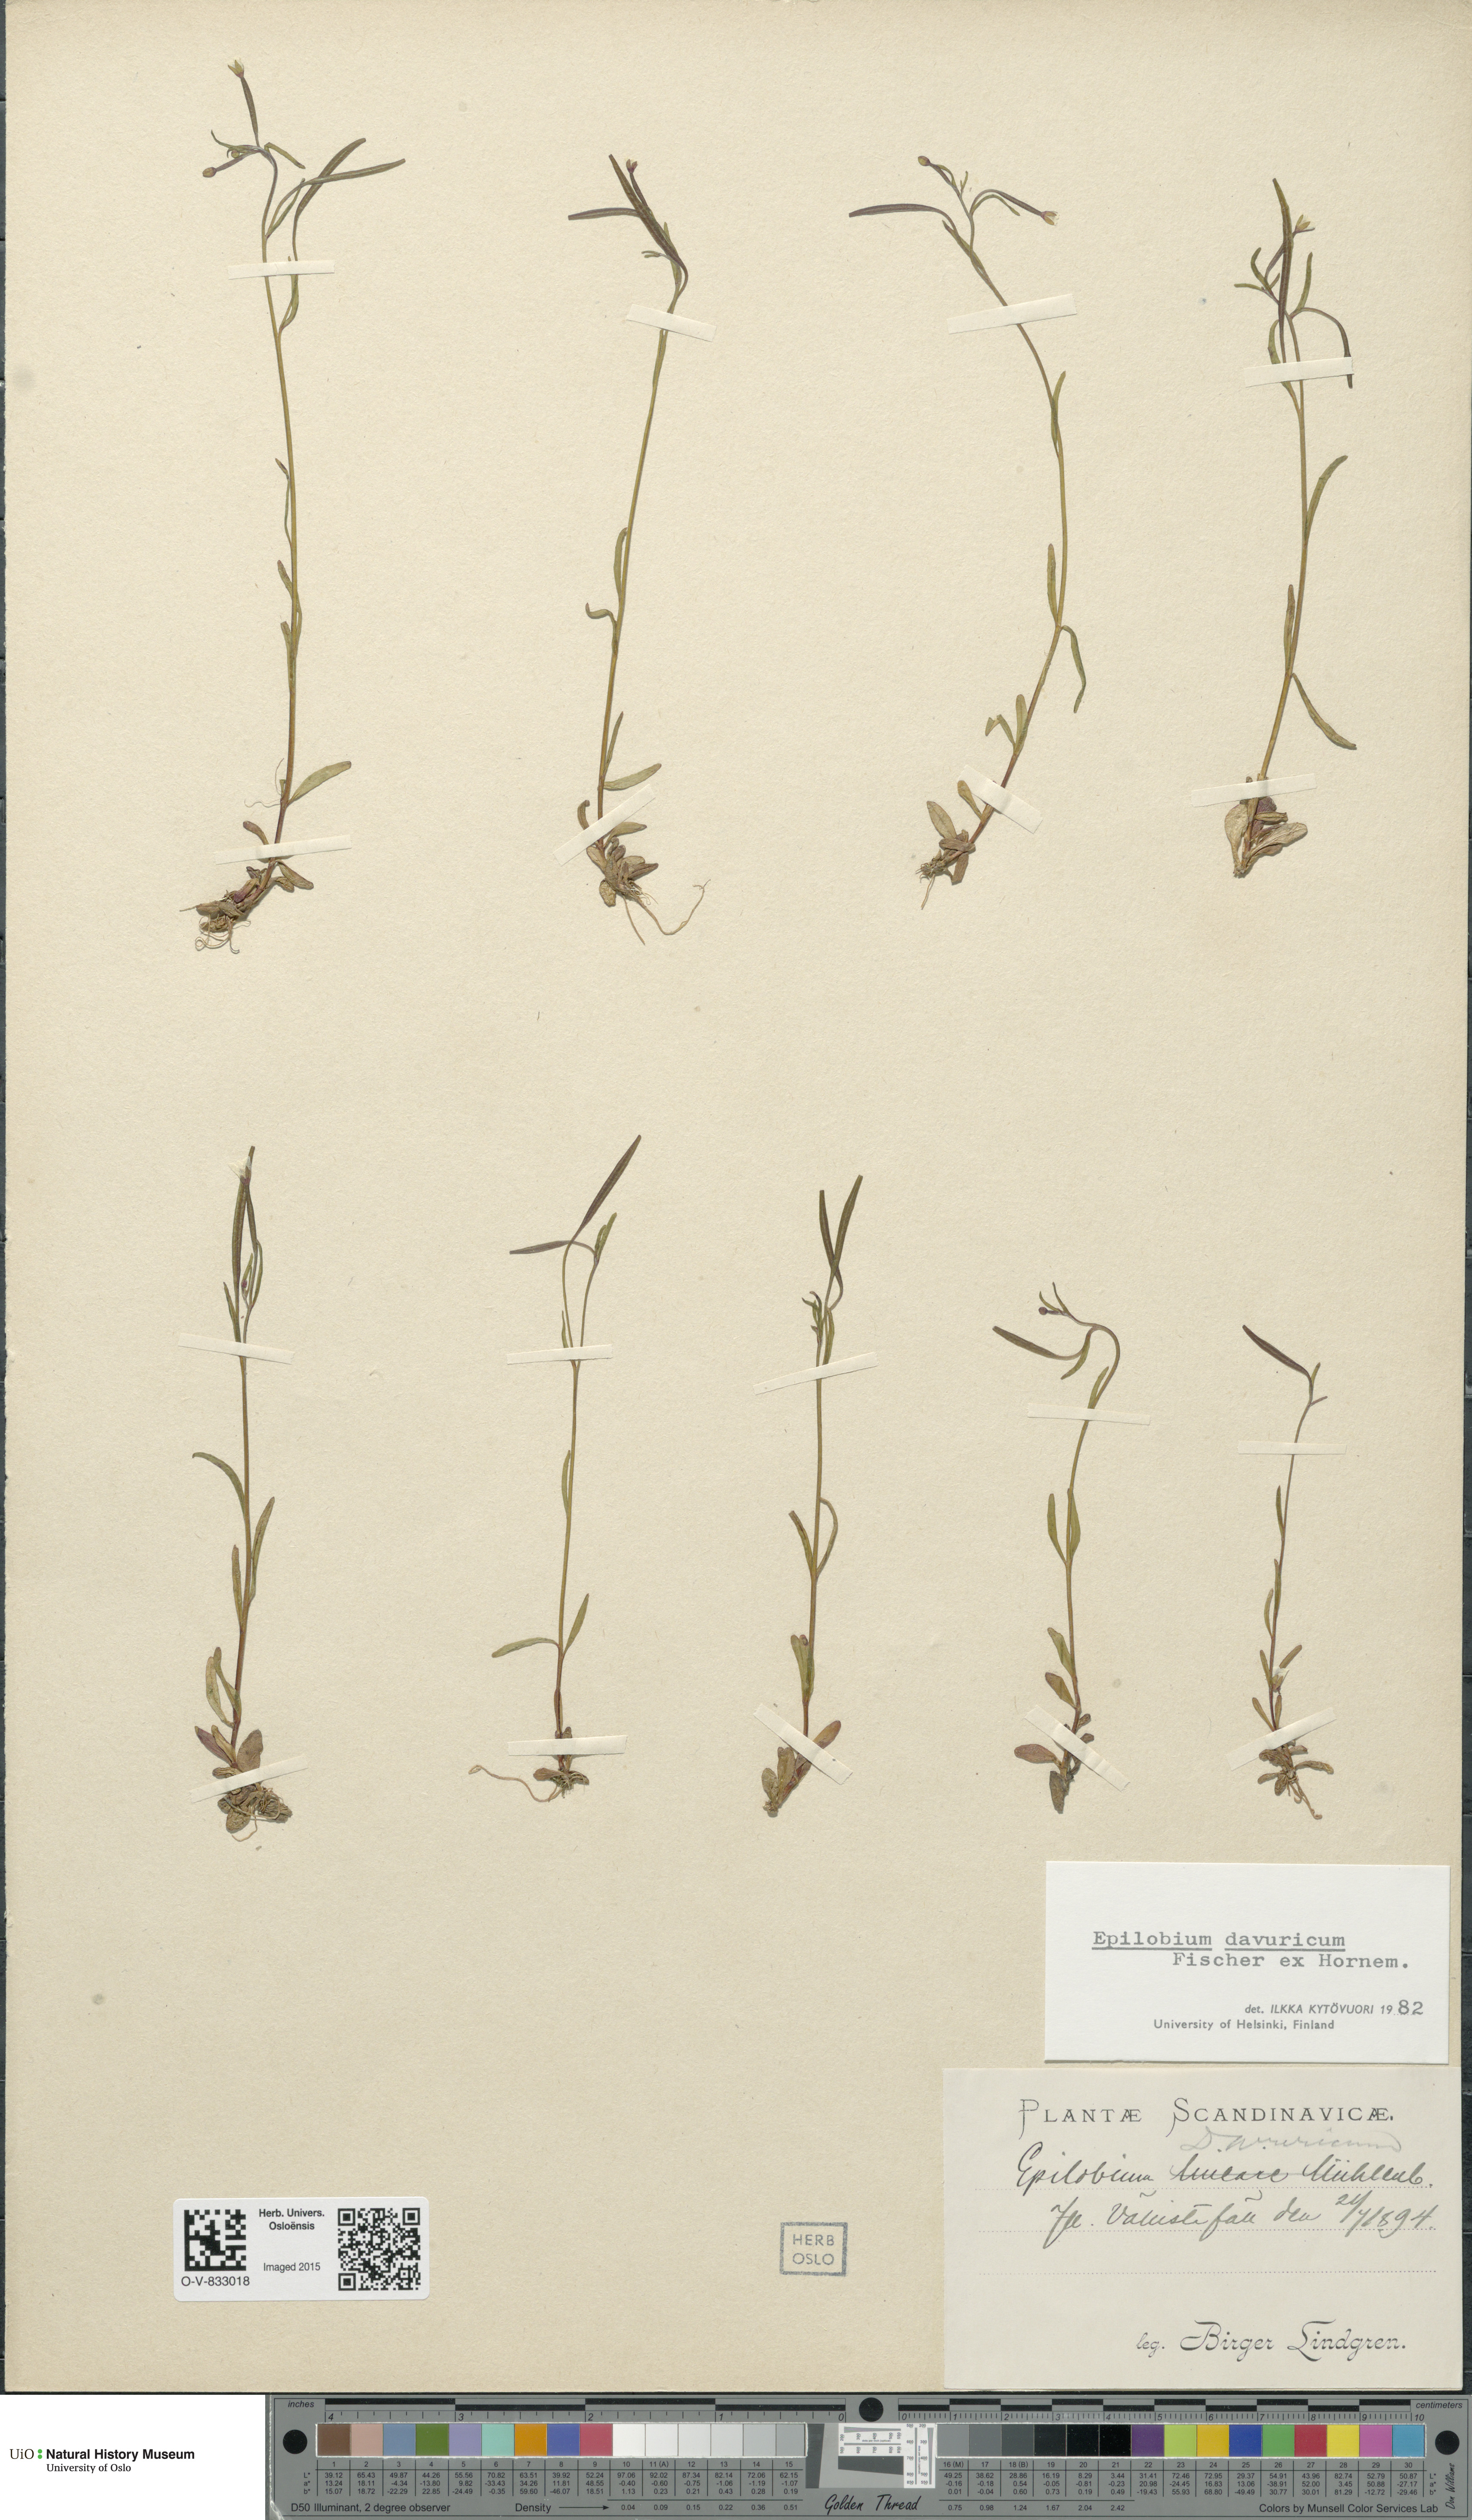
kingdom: Plantae
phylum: Tracheophyta
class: Magnoliopsida
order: Myrtales
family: Onagraceae
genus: Epilobium
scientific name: Epilobium davuricum
